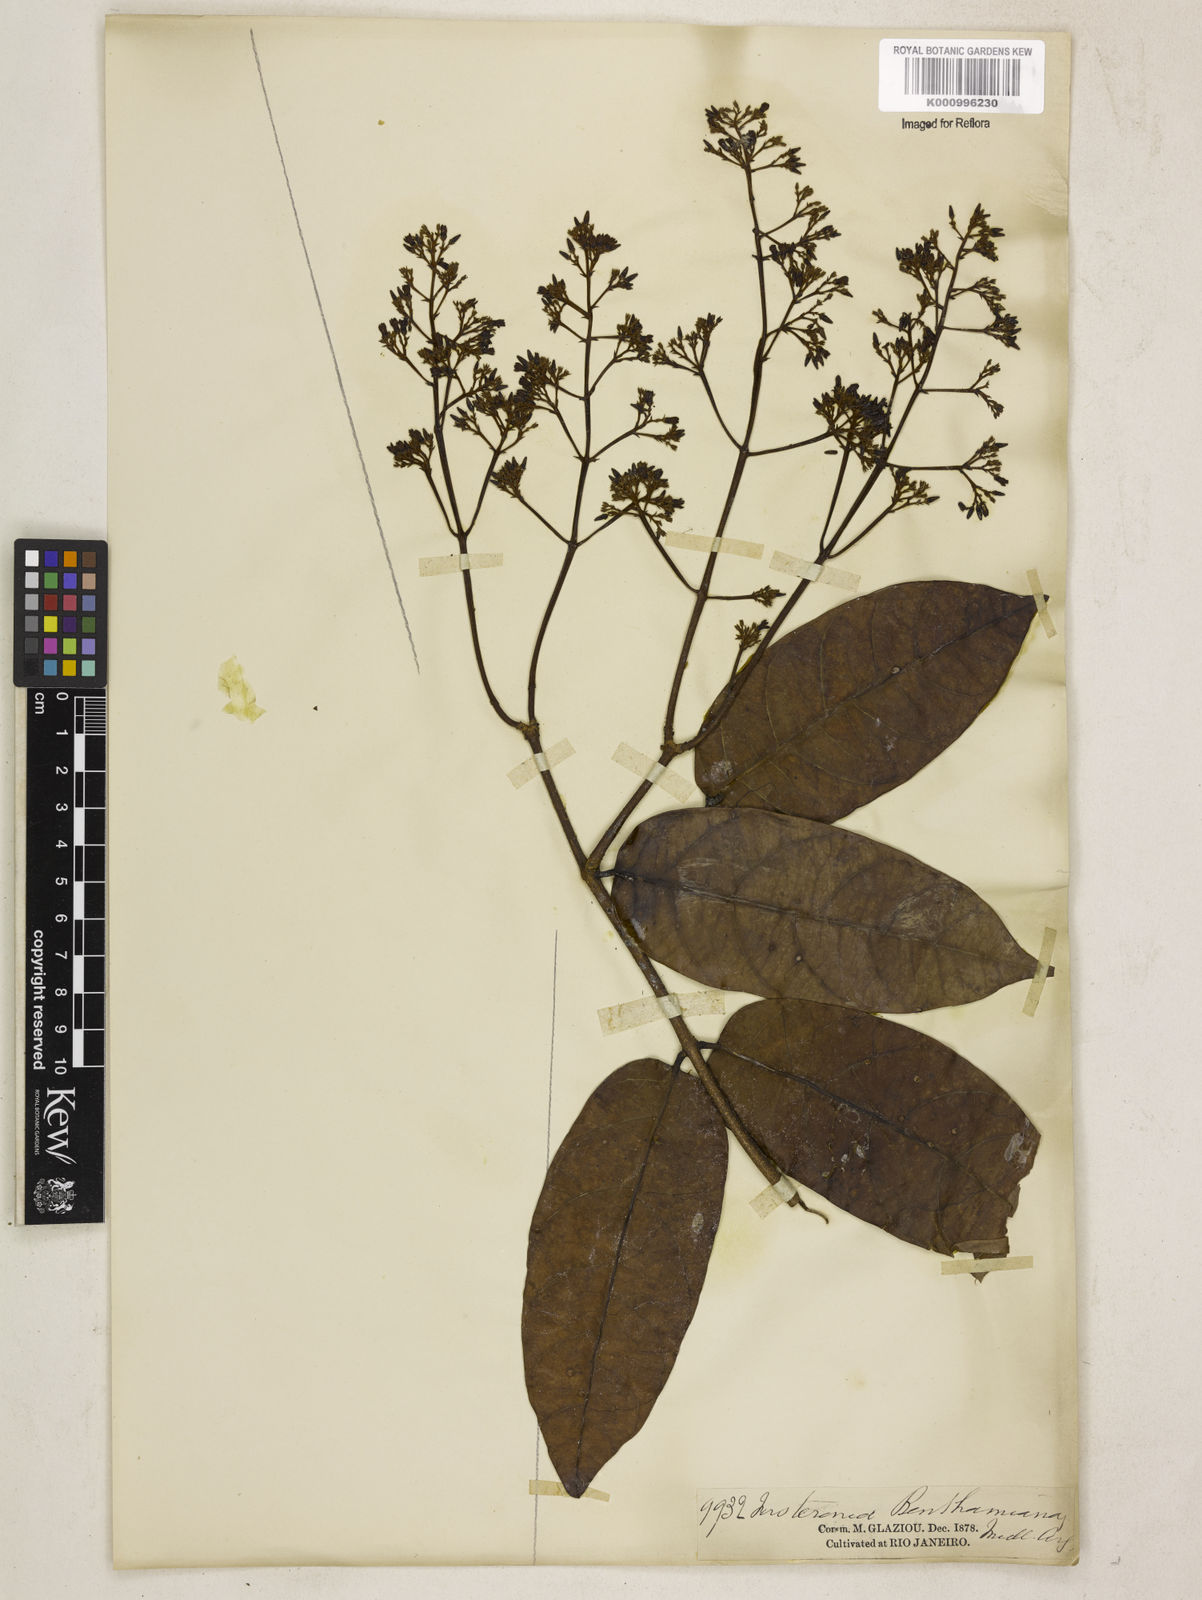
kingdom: Plantae
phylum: Tracheophyta
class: Magnoliopsida
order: Gentianales
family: Apocynaceae
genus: Forsteronia
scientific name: Forsteronia
